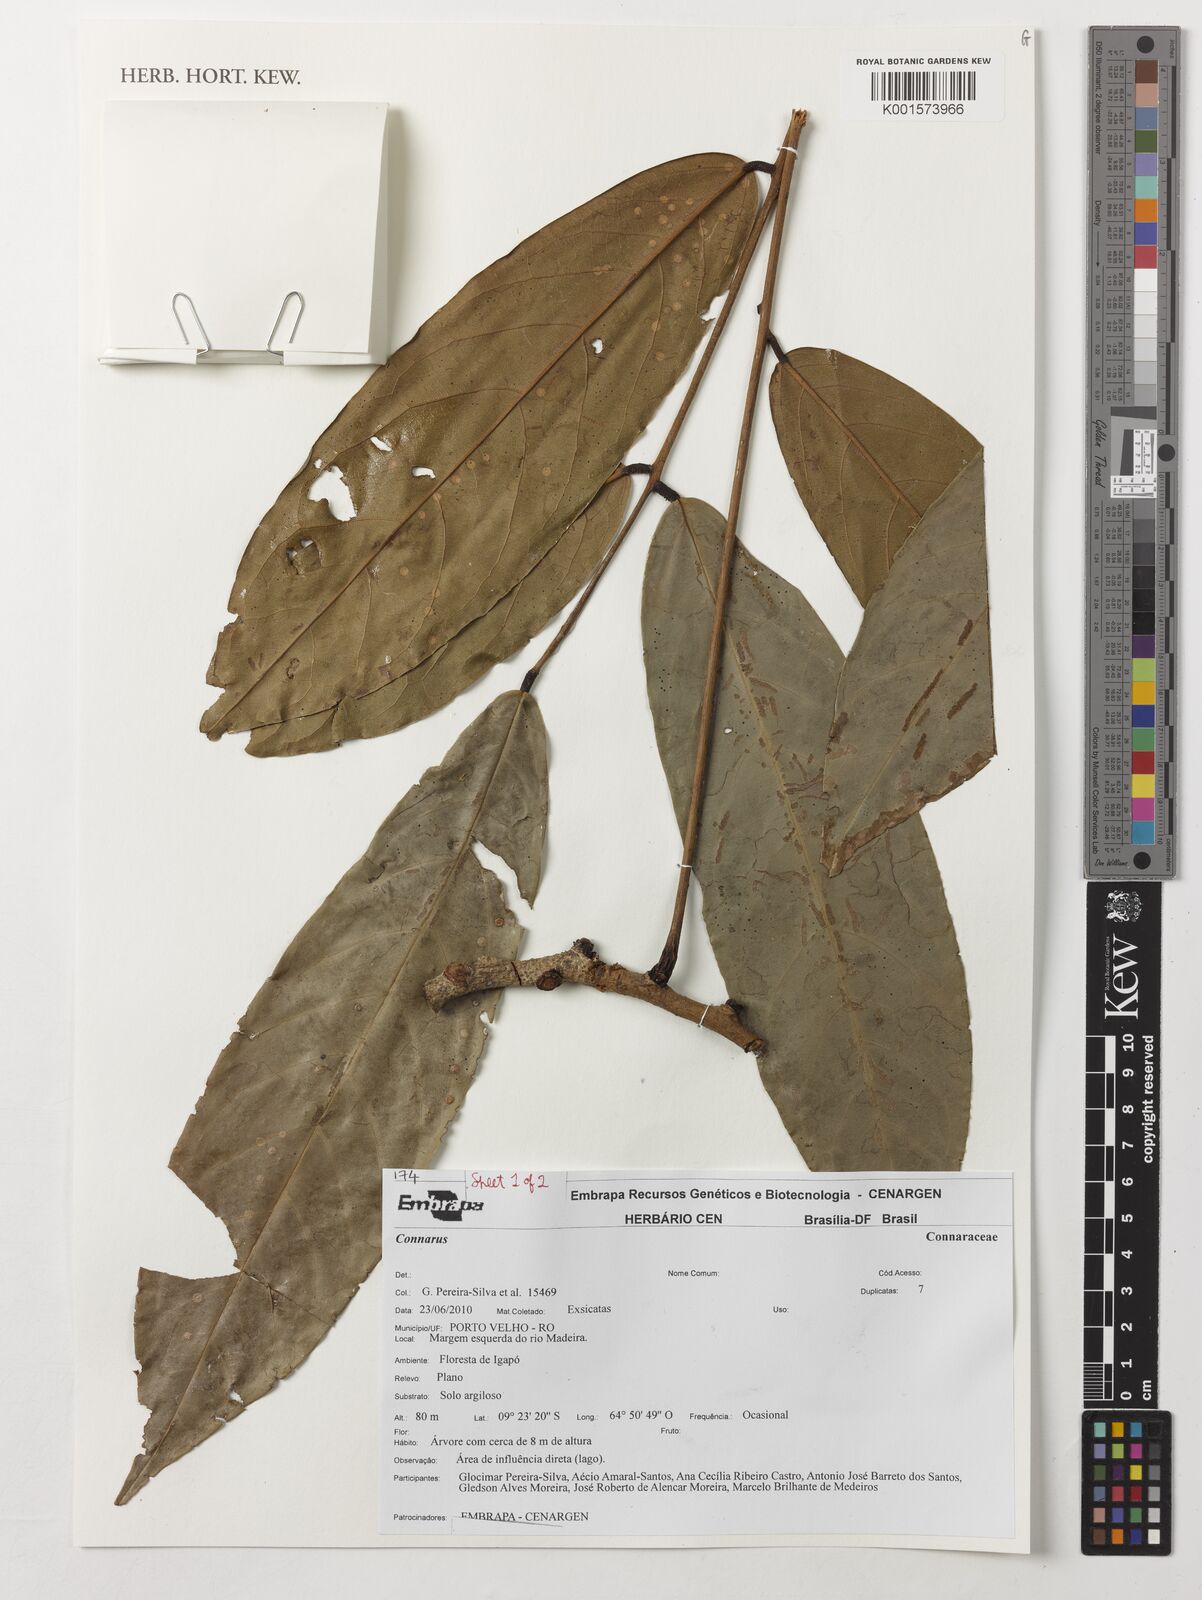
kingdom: Plantae
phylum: Tracheophyta
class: Magnoliopsida
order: Oxalidales
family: Connaraceae
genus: Connarus
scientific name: Connarus
